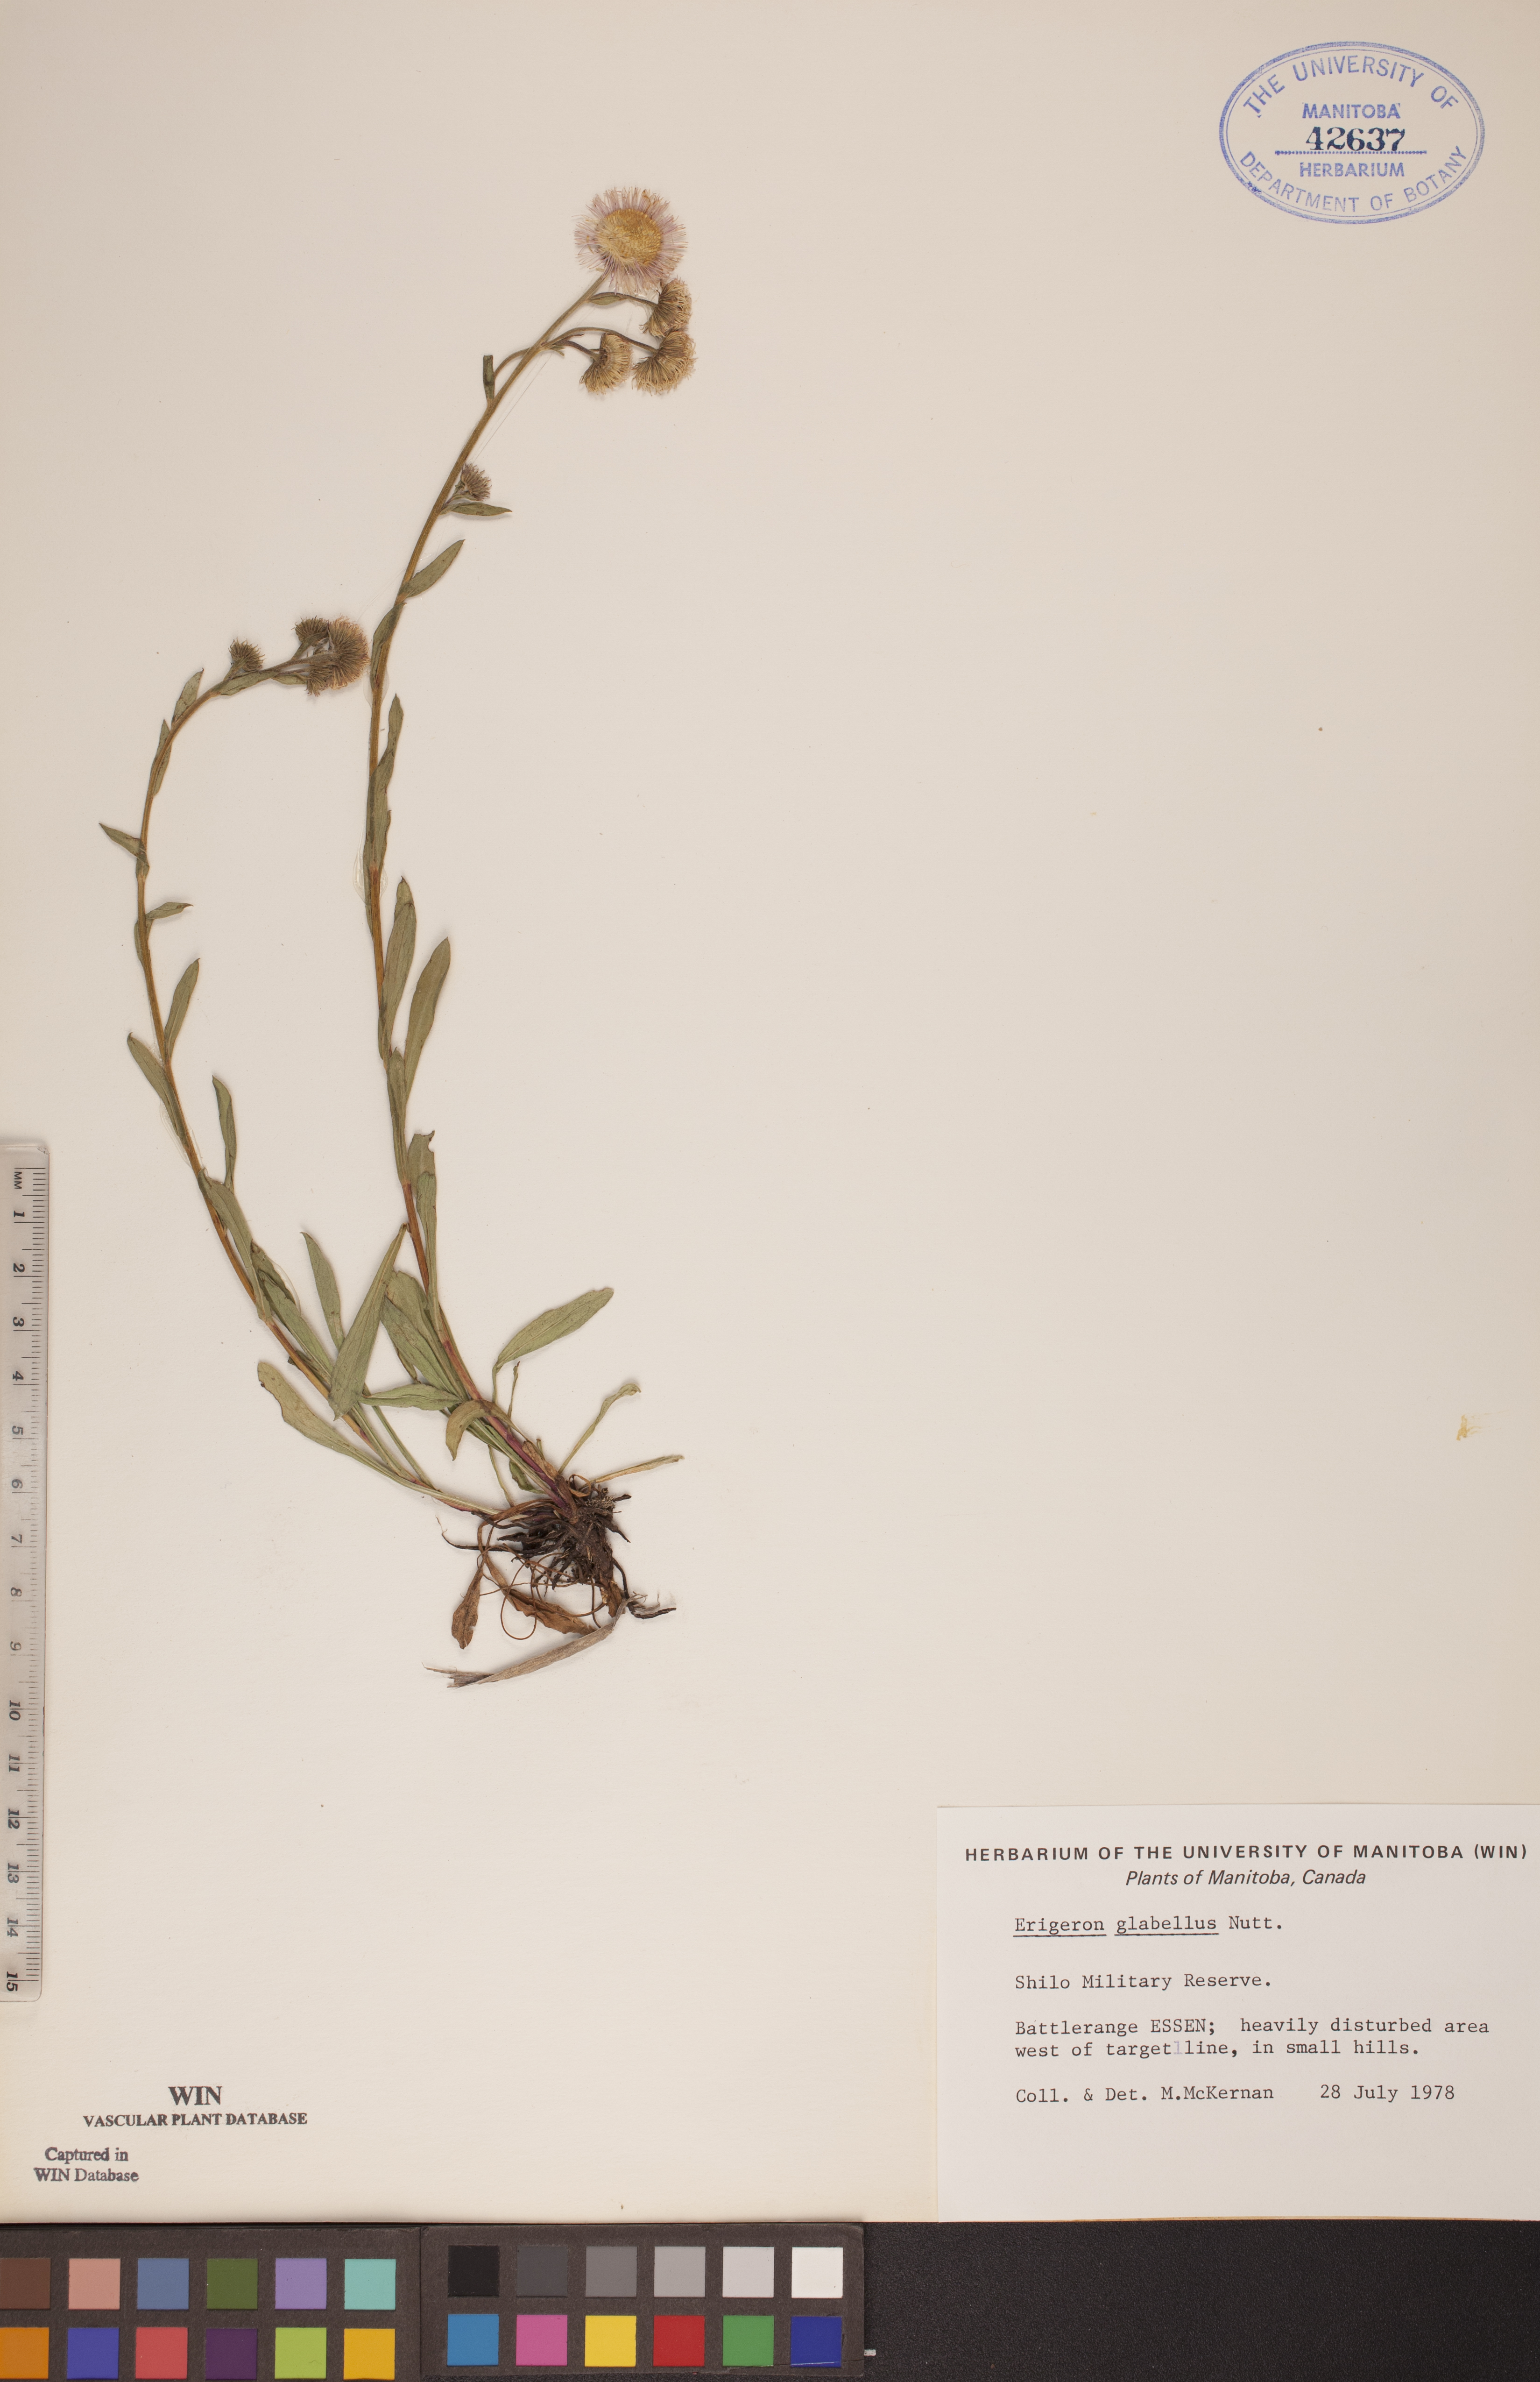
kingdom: Plantae
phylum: Tracheophyta
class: Magnoliopsida
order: Asterales
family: Asteraceae
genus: Erigeron
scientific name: Erigeron glabellus
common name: Smooth fleabane
